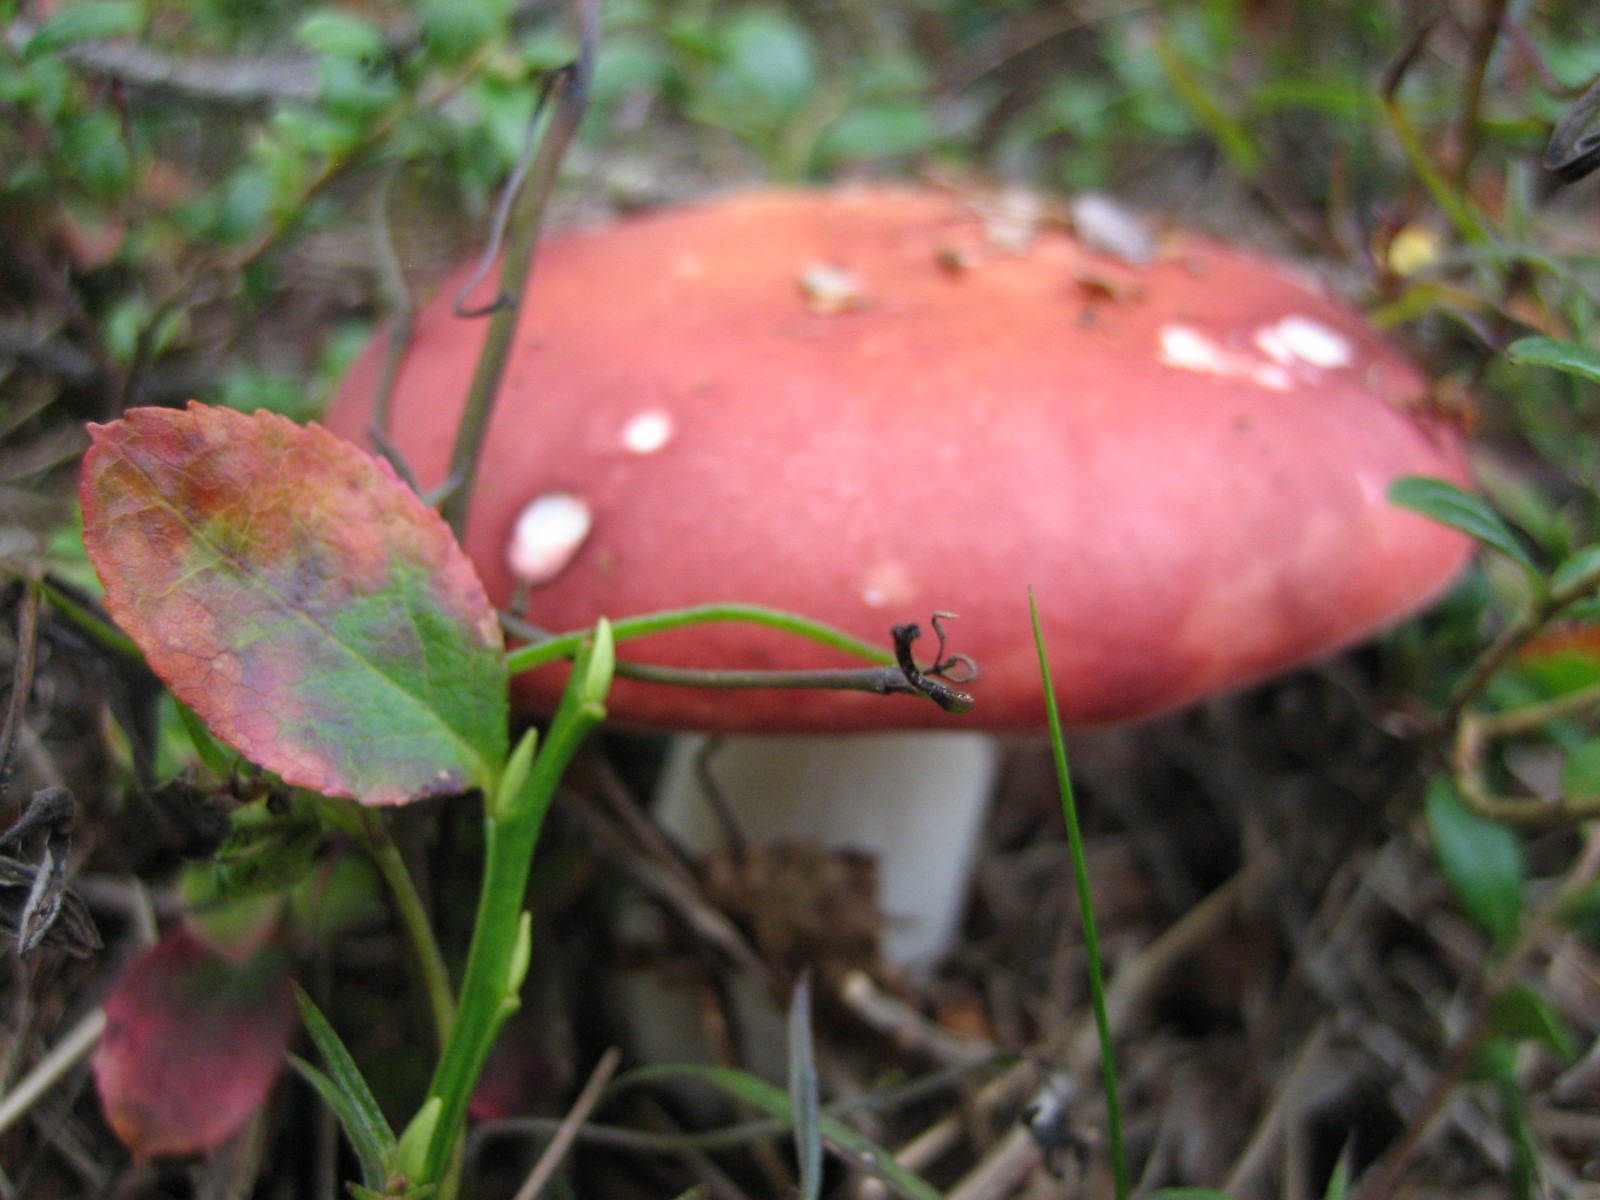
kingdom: Fungi
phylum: Basidiomycota
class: Agaricomycetes
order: Russulales
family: Russulaceae
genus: Russula
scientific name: Russula velenovskyi
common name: orangerød skørhat
